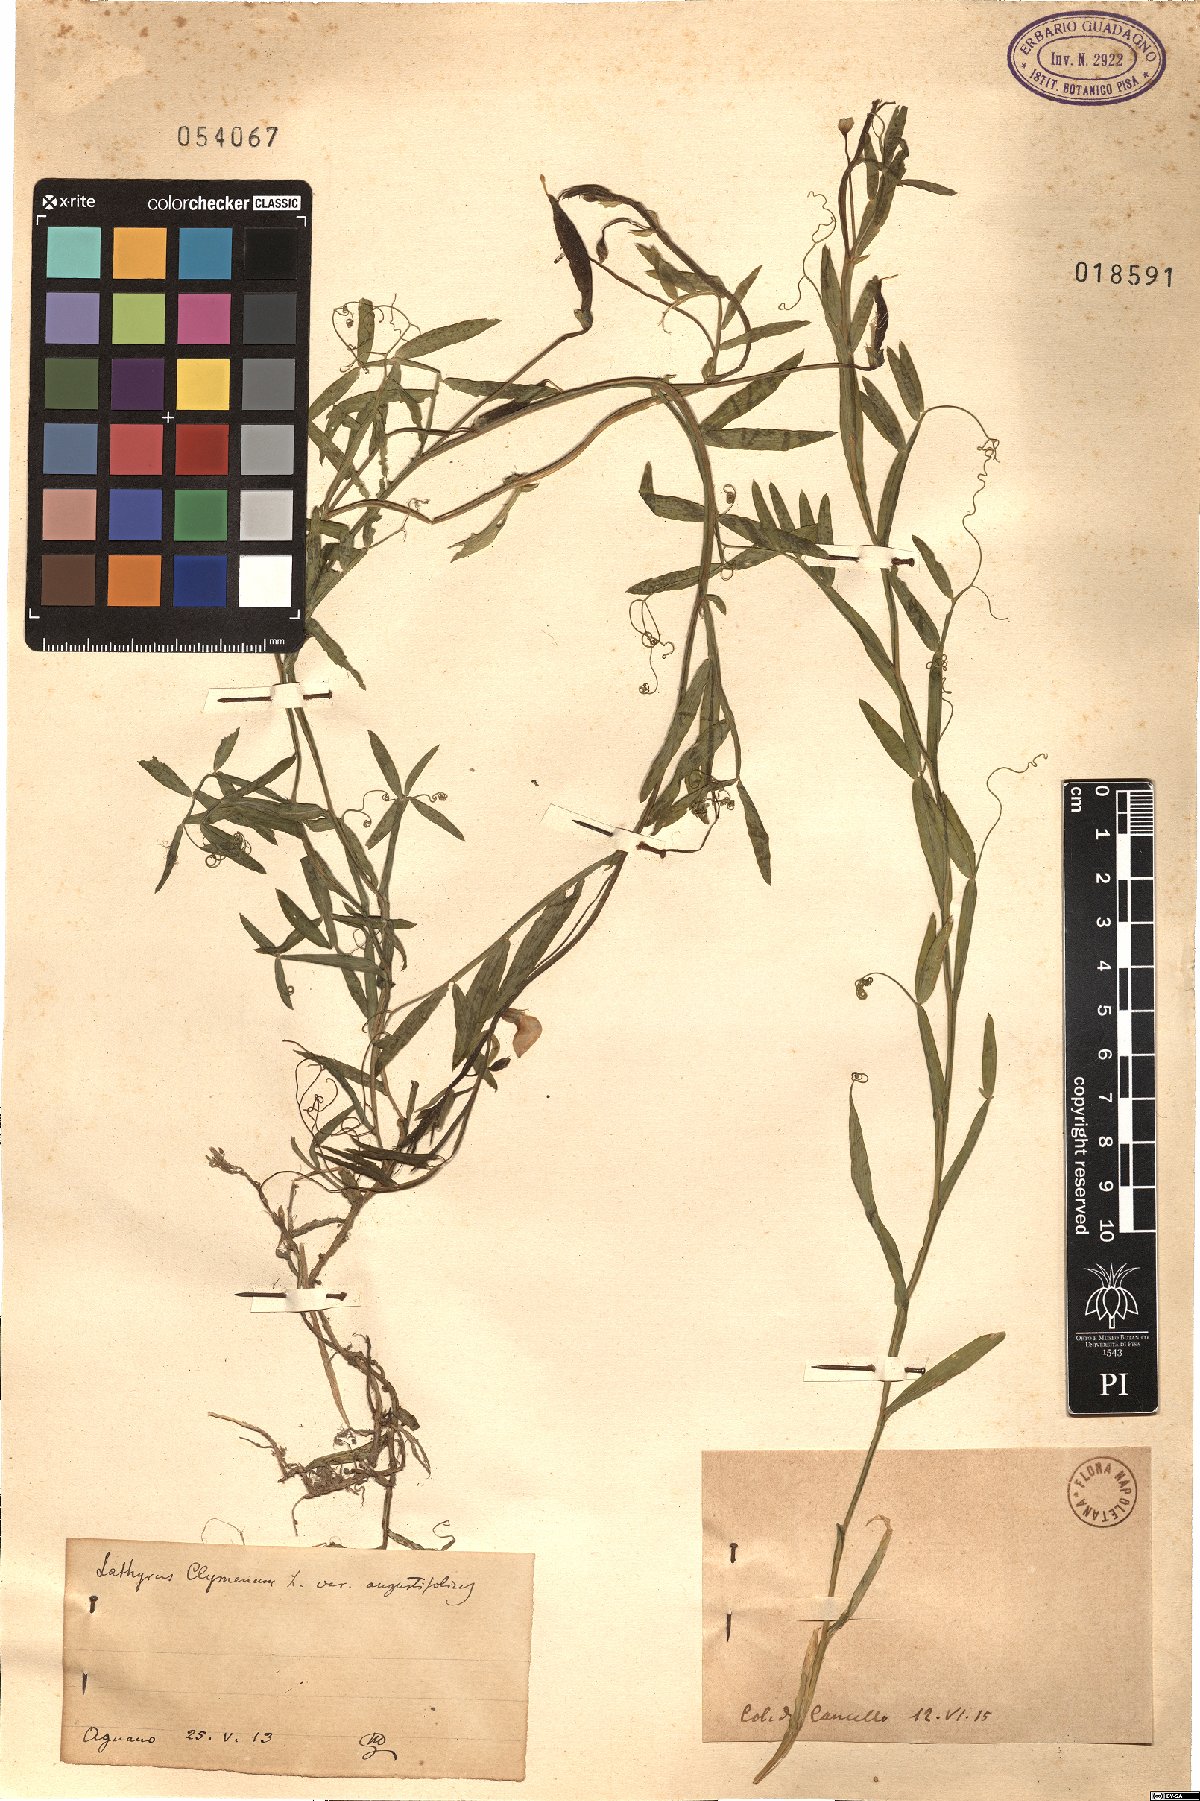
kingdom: Plantae
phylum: Tracheophyta
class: Magnoliopsida
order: Fabales
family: Fabaceae
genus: Lathyrus
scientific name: Lathyrus clymenum
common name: Spanish vetchling
